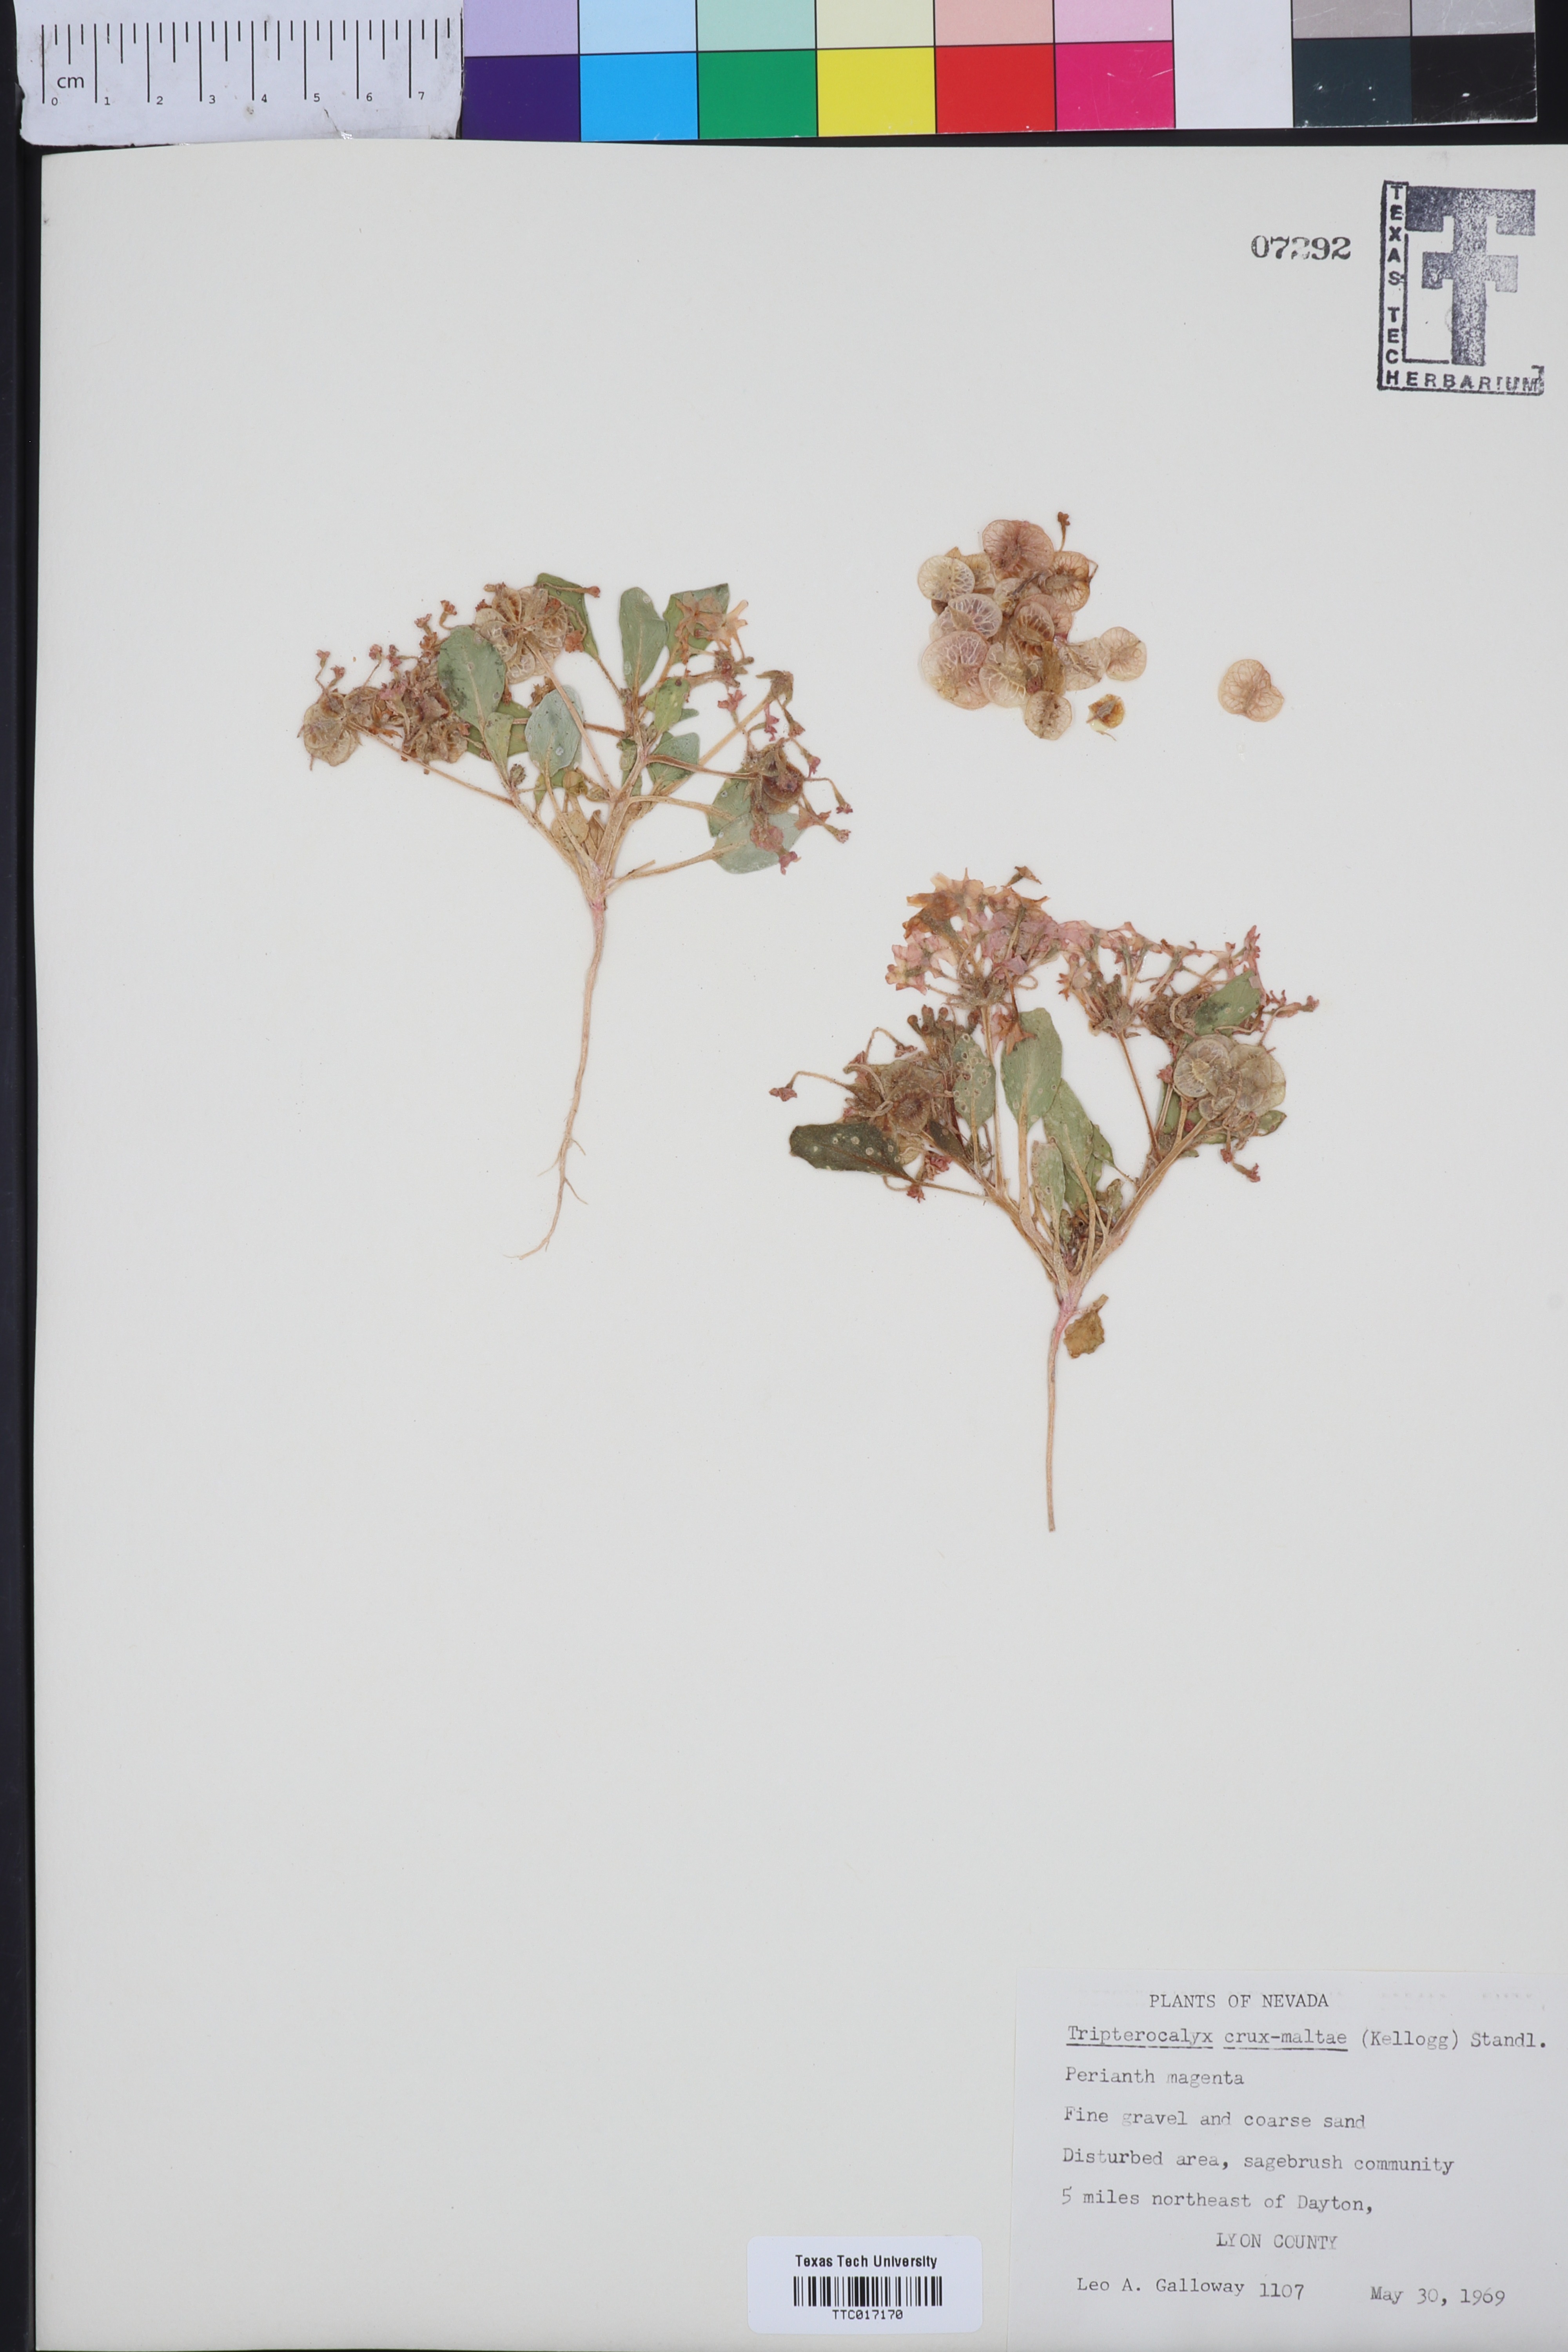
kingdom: Plantae
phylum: Tracheophyta
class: Magnoliopsida
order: Caryophyllales
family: Nyctaginaceae
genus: Tripterocalyx
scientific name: Tripterocalyx crux-maltae
